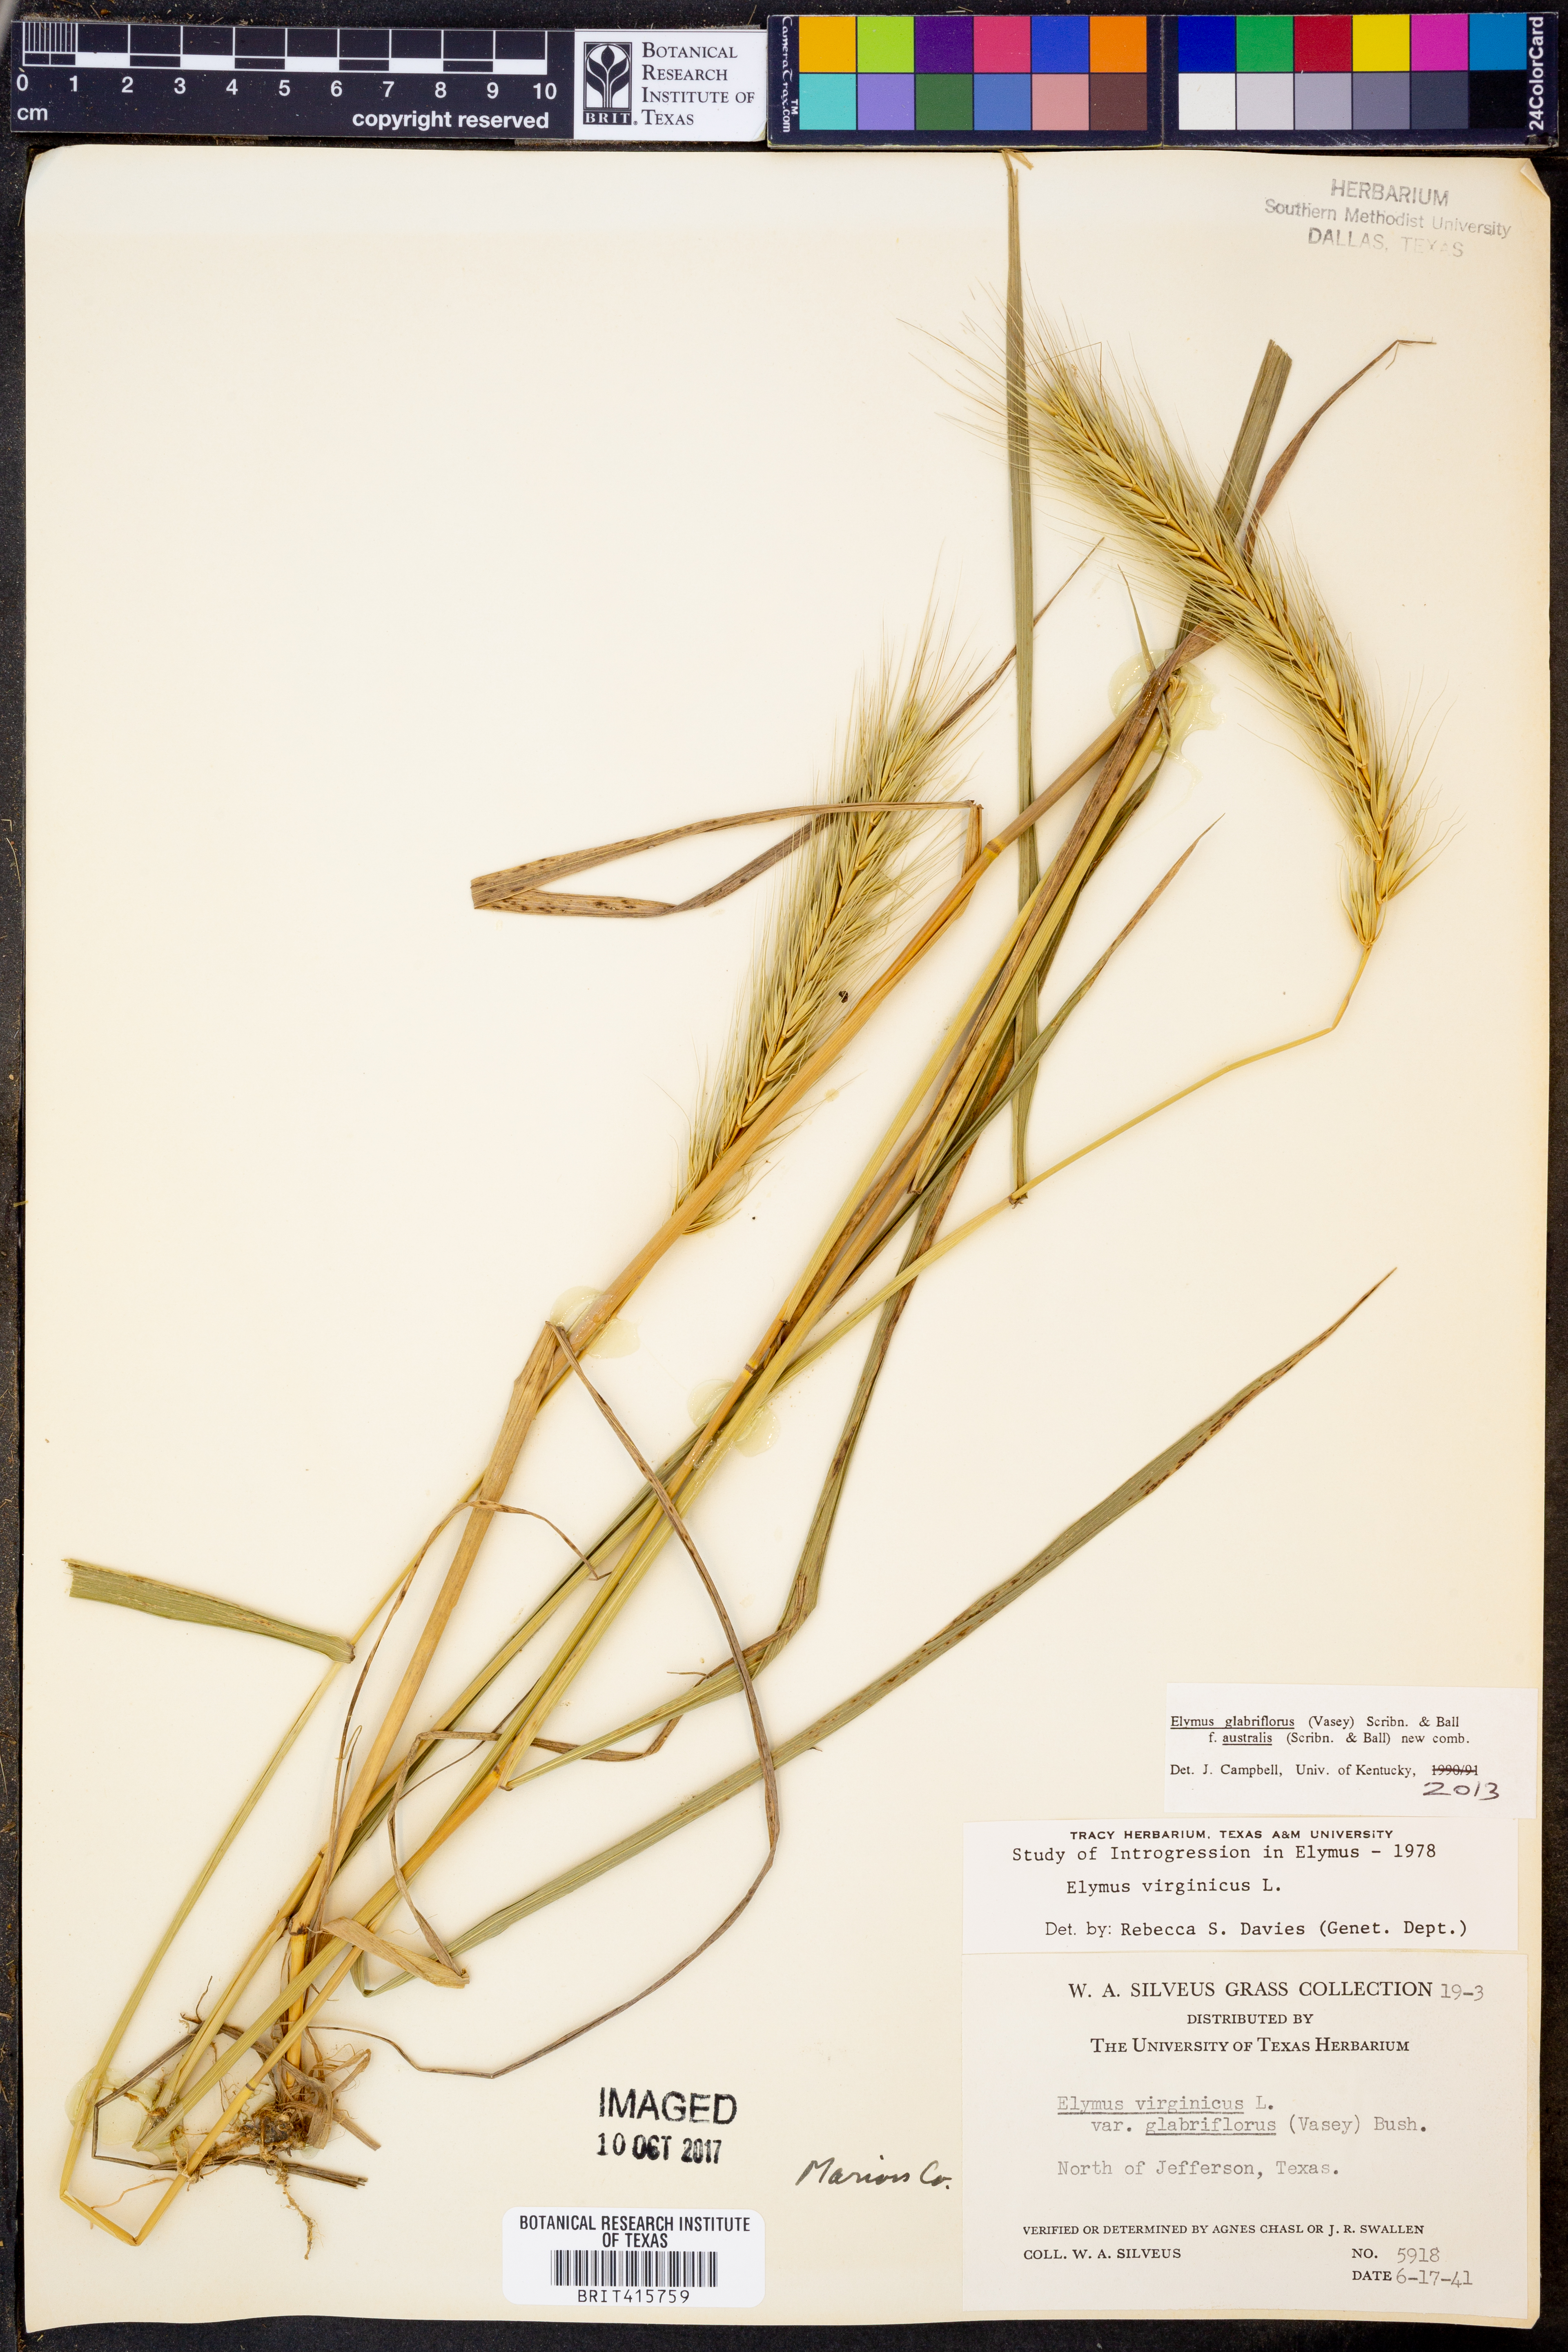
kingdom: Plantae
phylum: Tracheophyta
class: Liliopsida
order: Poales
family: Poaceae
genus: Elymus
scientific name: Elymus virginicus
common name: Common eastern wildrye
